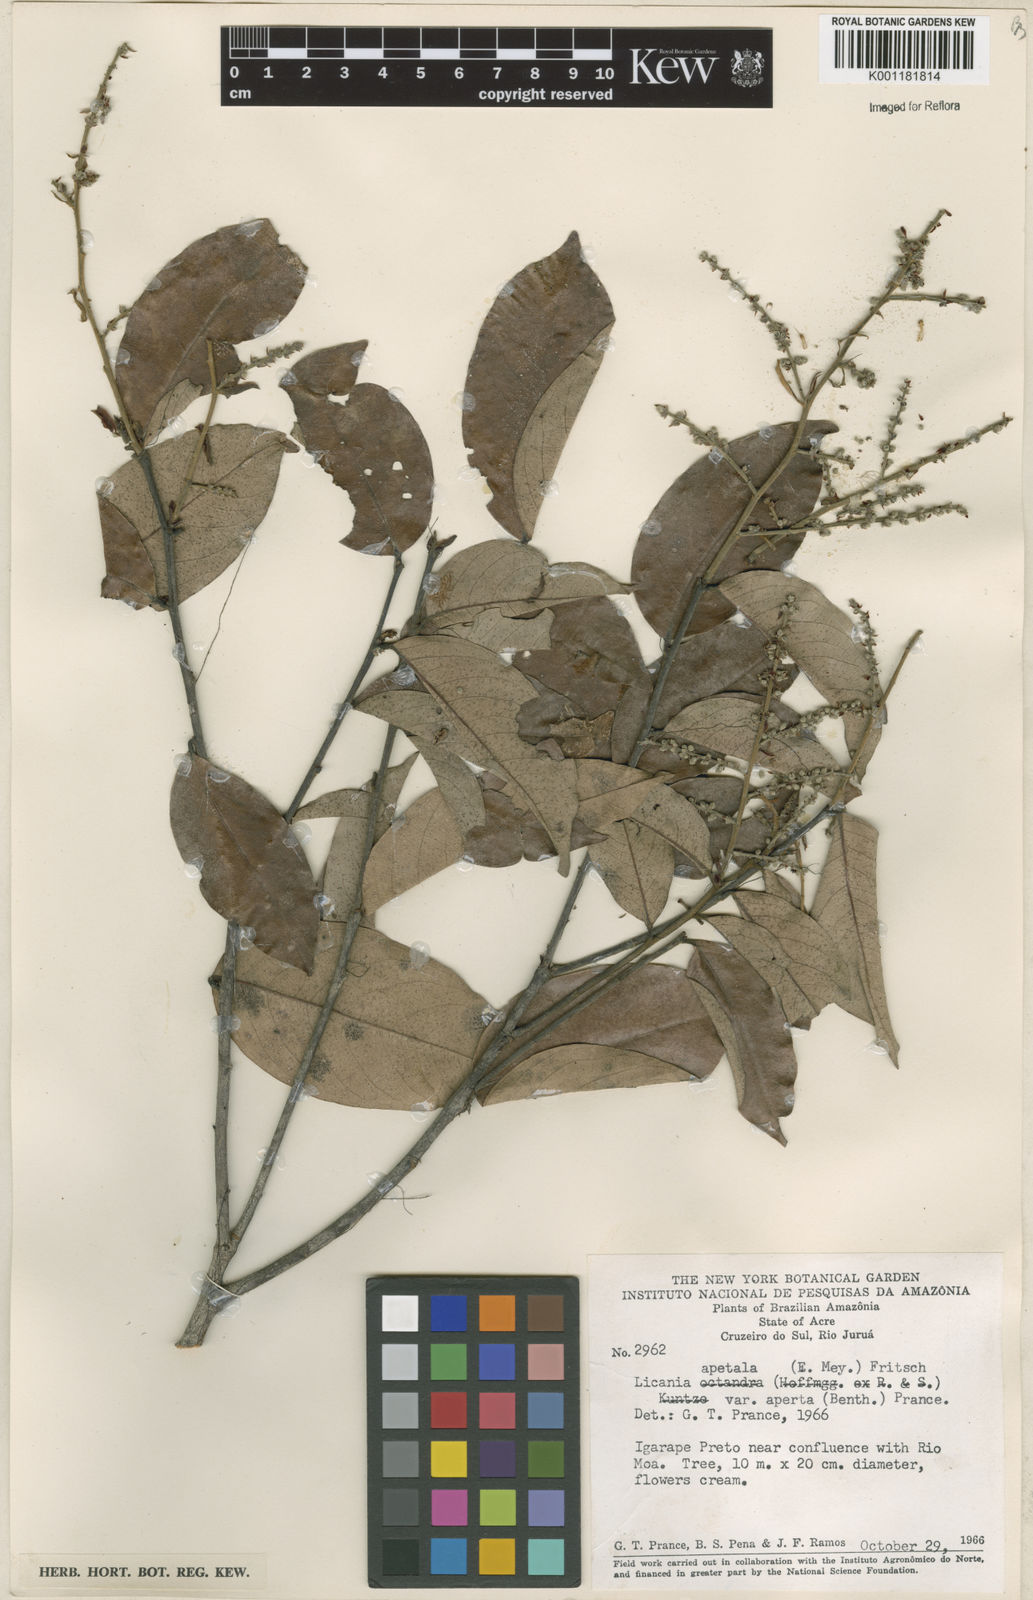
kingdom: Plantae
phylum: Tracheophyta
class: Magnoliopsida
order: Malpighiales
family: Chrysobalanaceae
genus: Leptobalanus
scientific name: Leptobalanus apetalus
